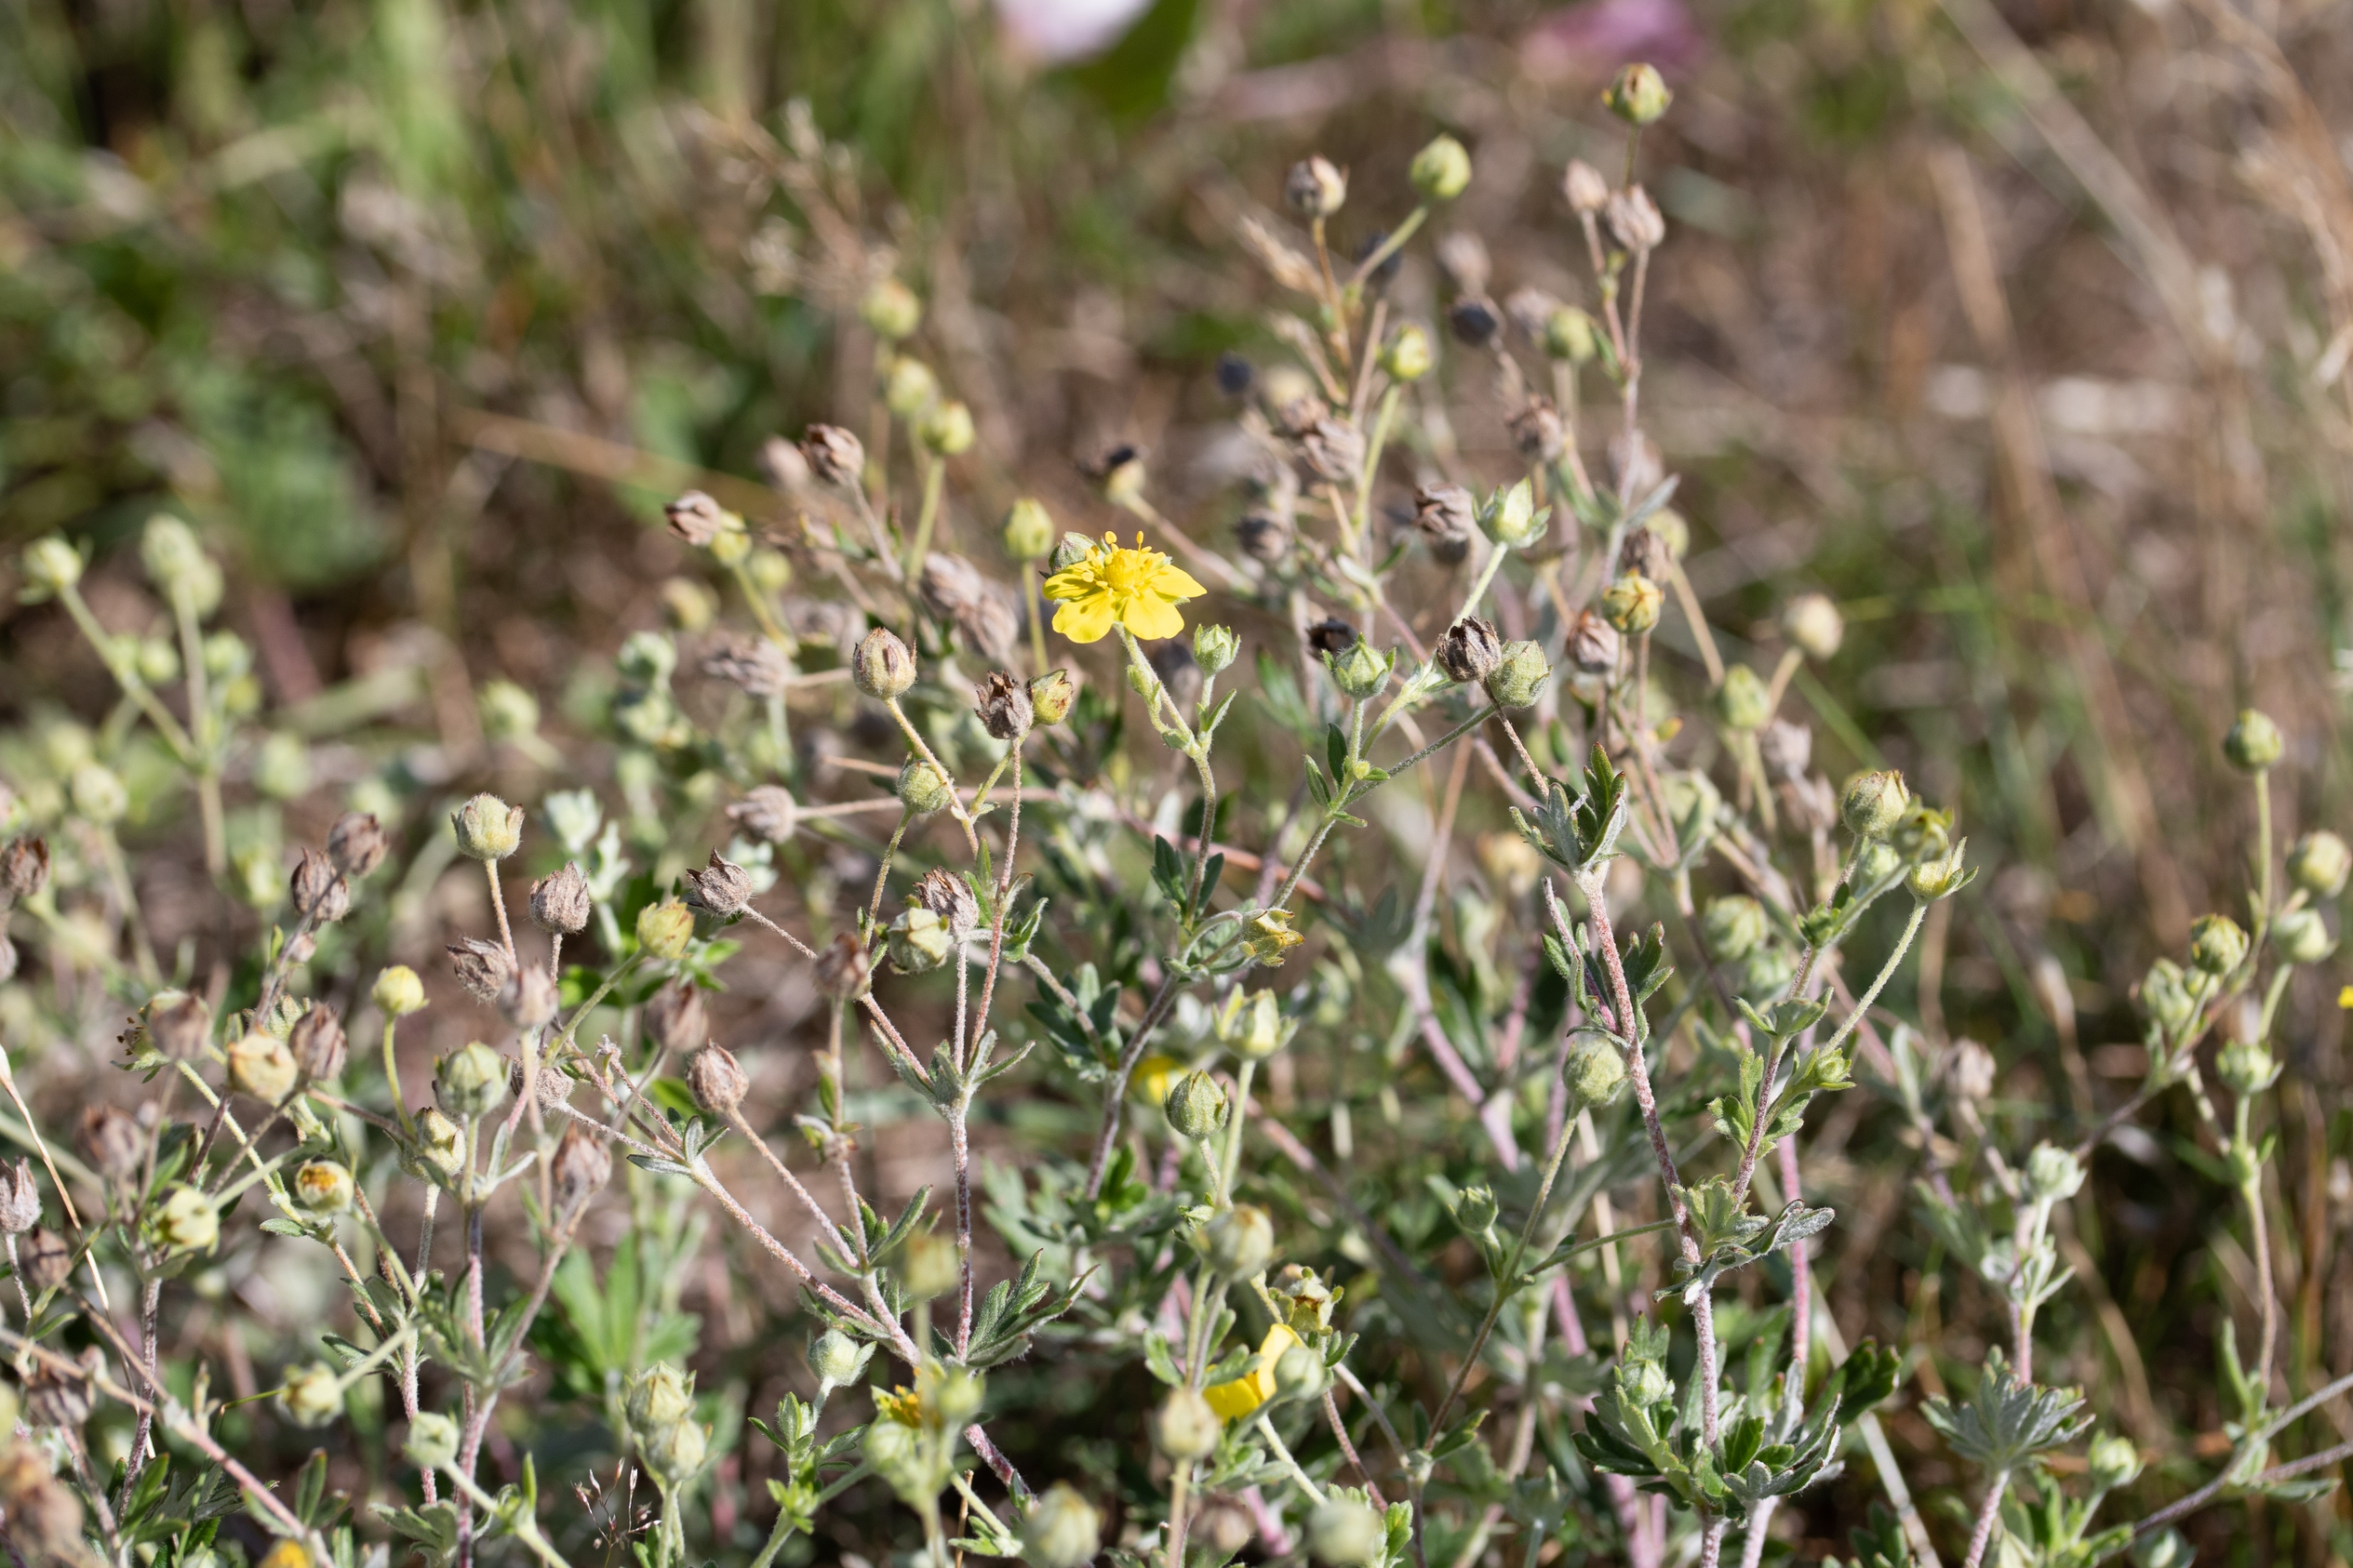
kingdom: Plantae
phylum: Tracheophyta
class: Magnoliopsida
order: Rosales
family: Rosaceae
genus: Potentilla
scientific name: Potentilla inclinata
